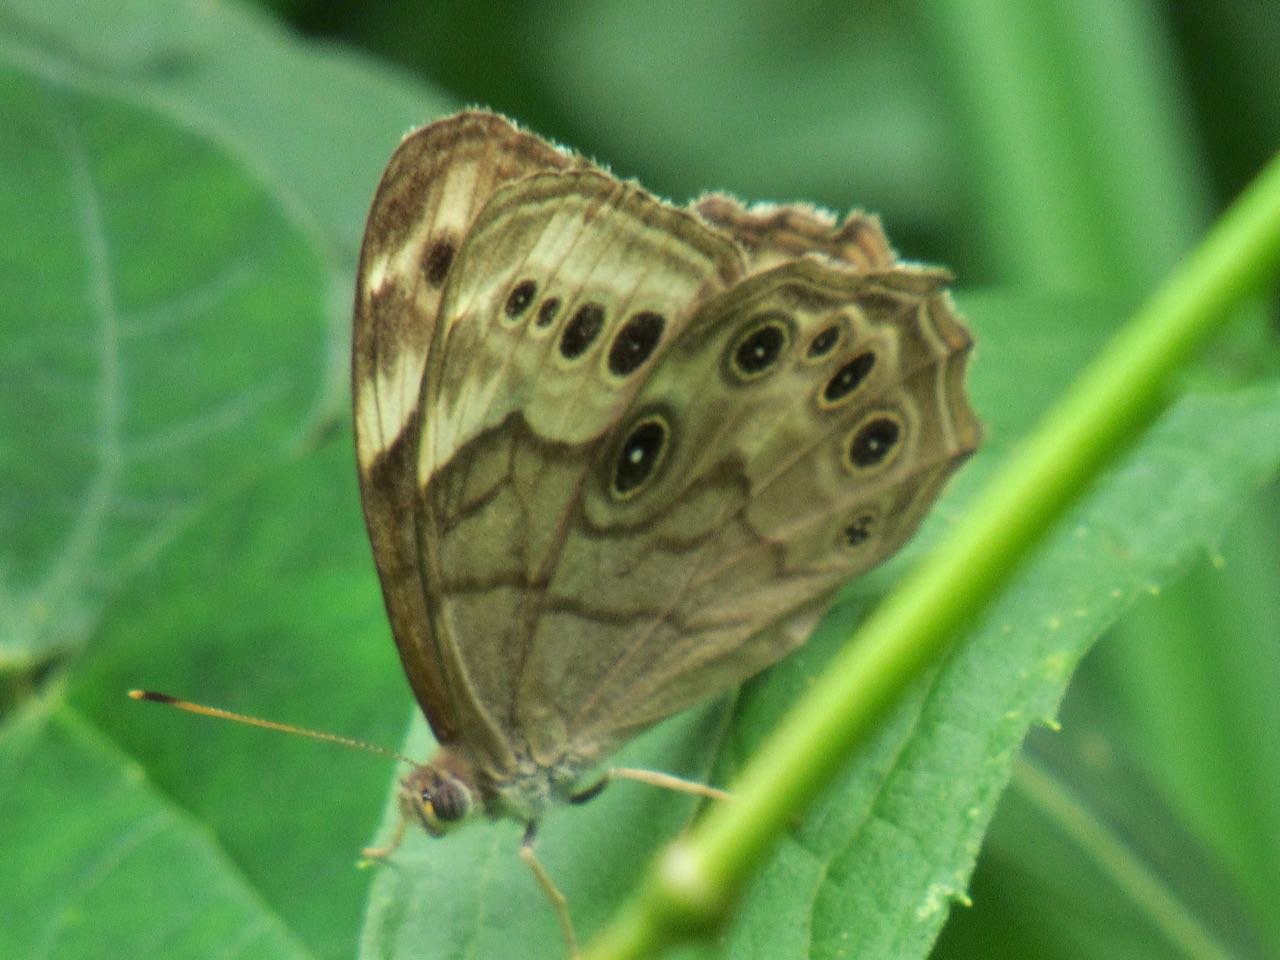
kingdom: Animalia
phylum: Arthropoda
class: Insecta
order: Lepidoptera
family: Nymphalidae
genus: Lethe
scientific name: Lethe anthedon
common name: Northern Pearly-Eye
